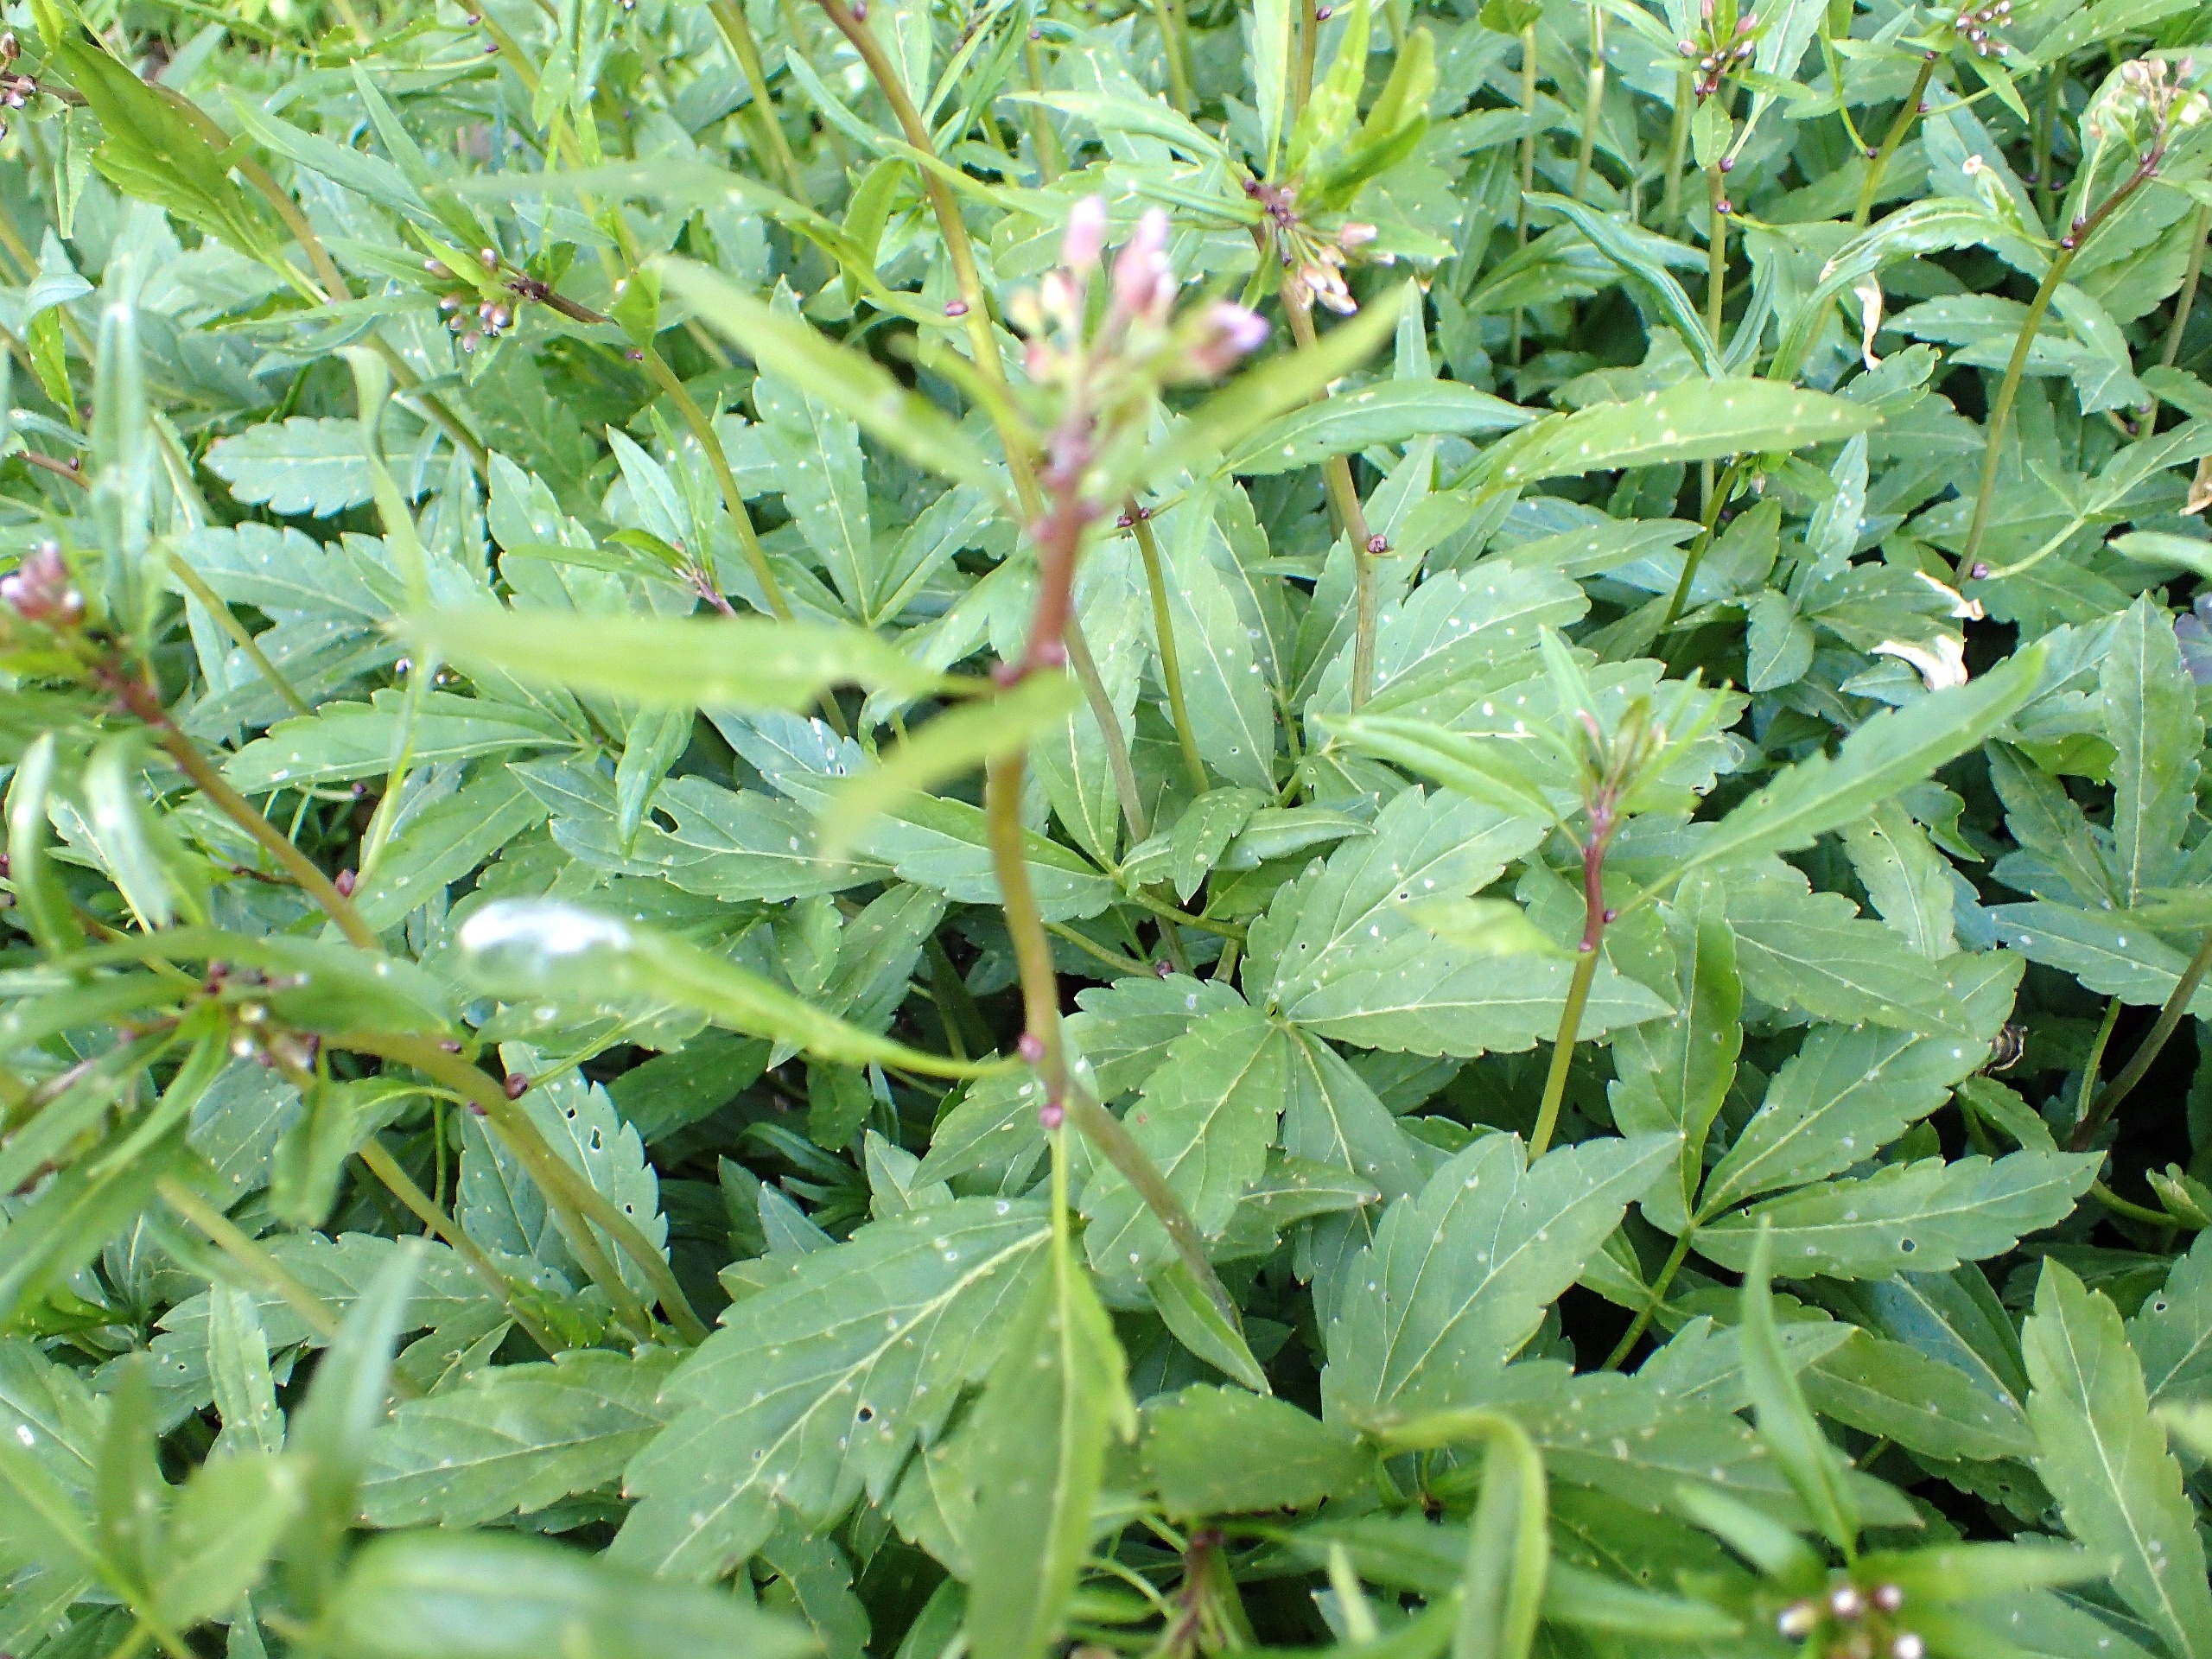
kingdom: Plantae
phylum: Tracheophyta
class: Magnoliopsida
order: Brassicales
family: Brassicaceae
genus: Cardamine
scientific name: Cardamine bulbifera
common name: Tandrod
